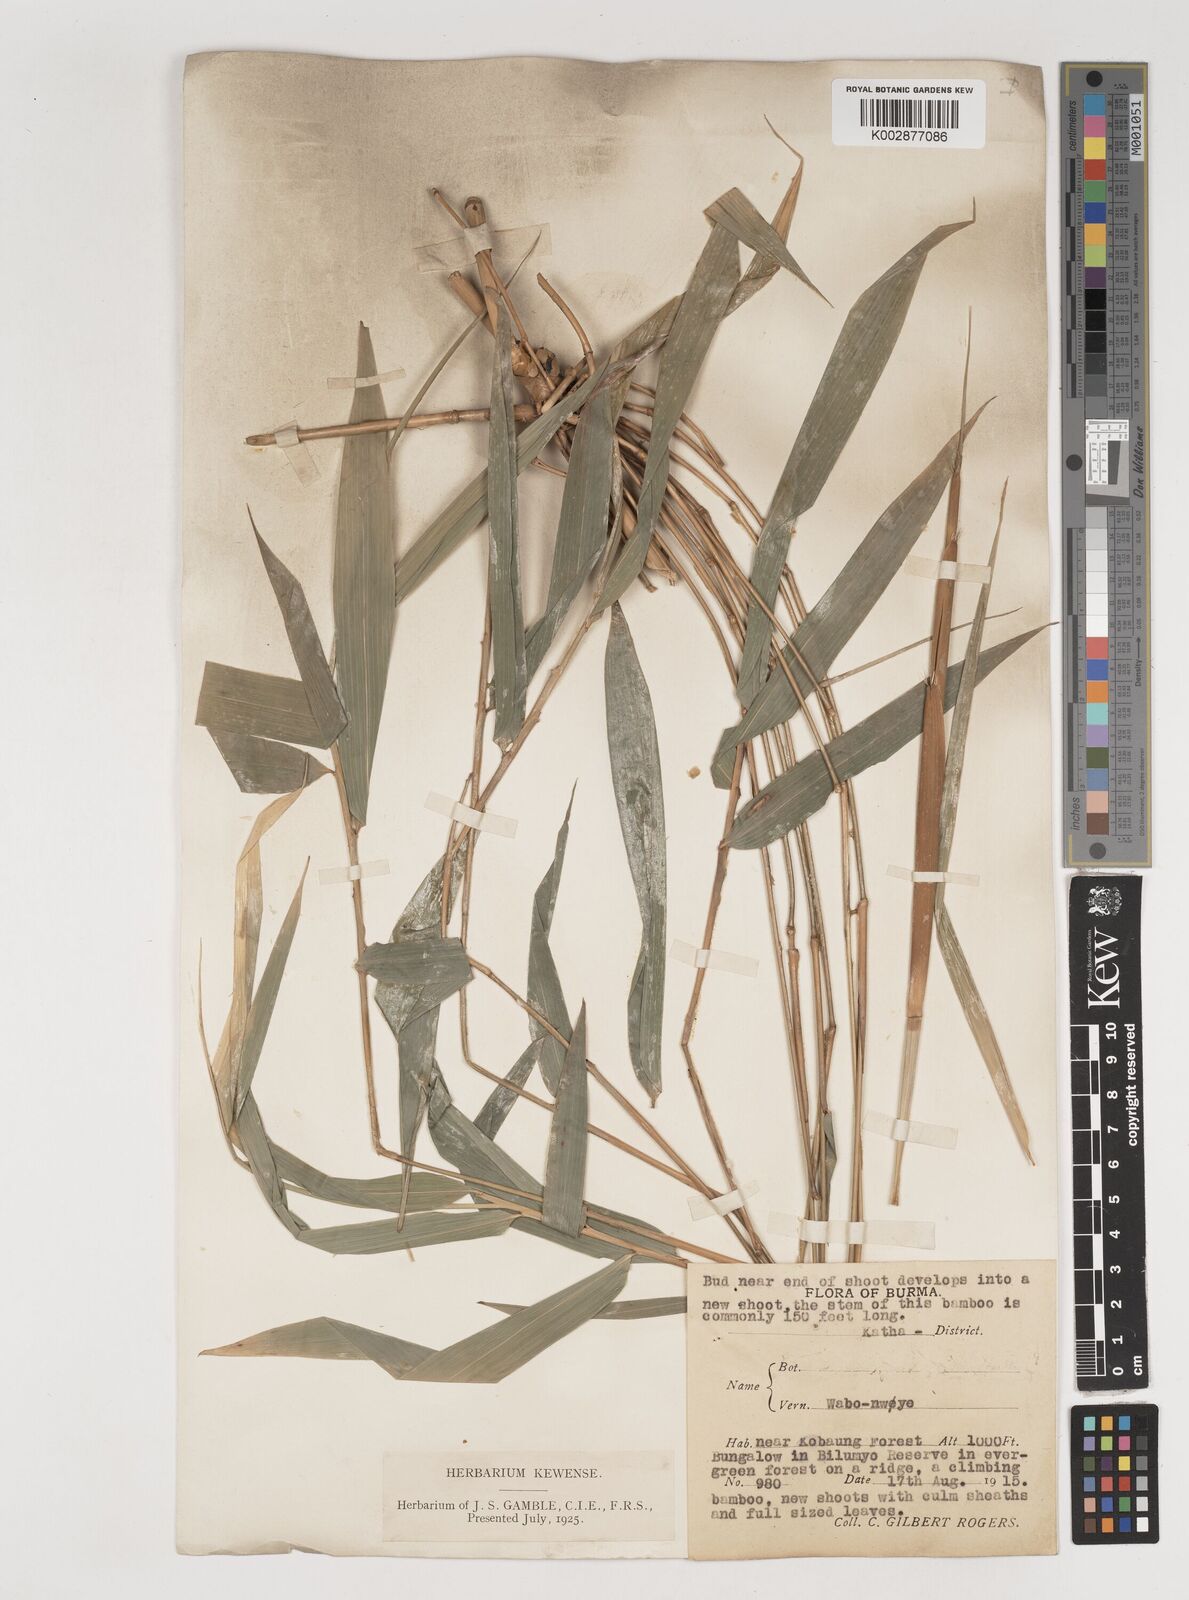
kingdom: Plantae
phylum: Tracheophyta
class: Liliopsida
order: Poales
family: Poaceae
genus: Bambusa
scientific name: Bambusa
